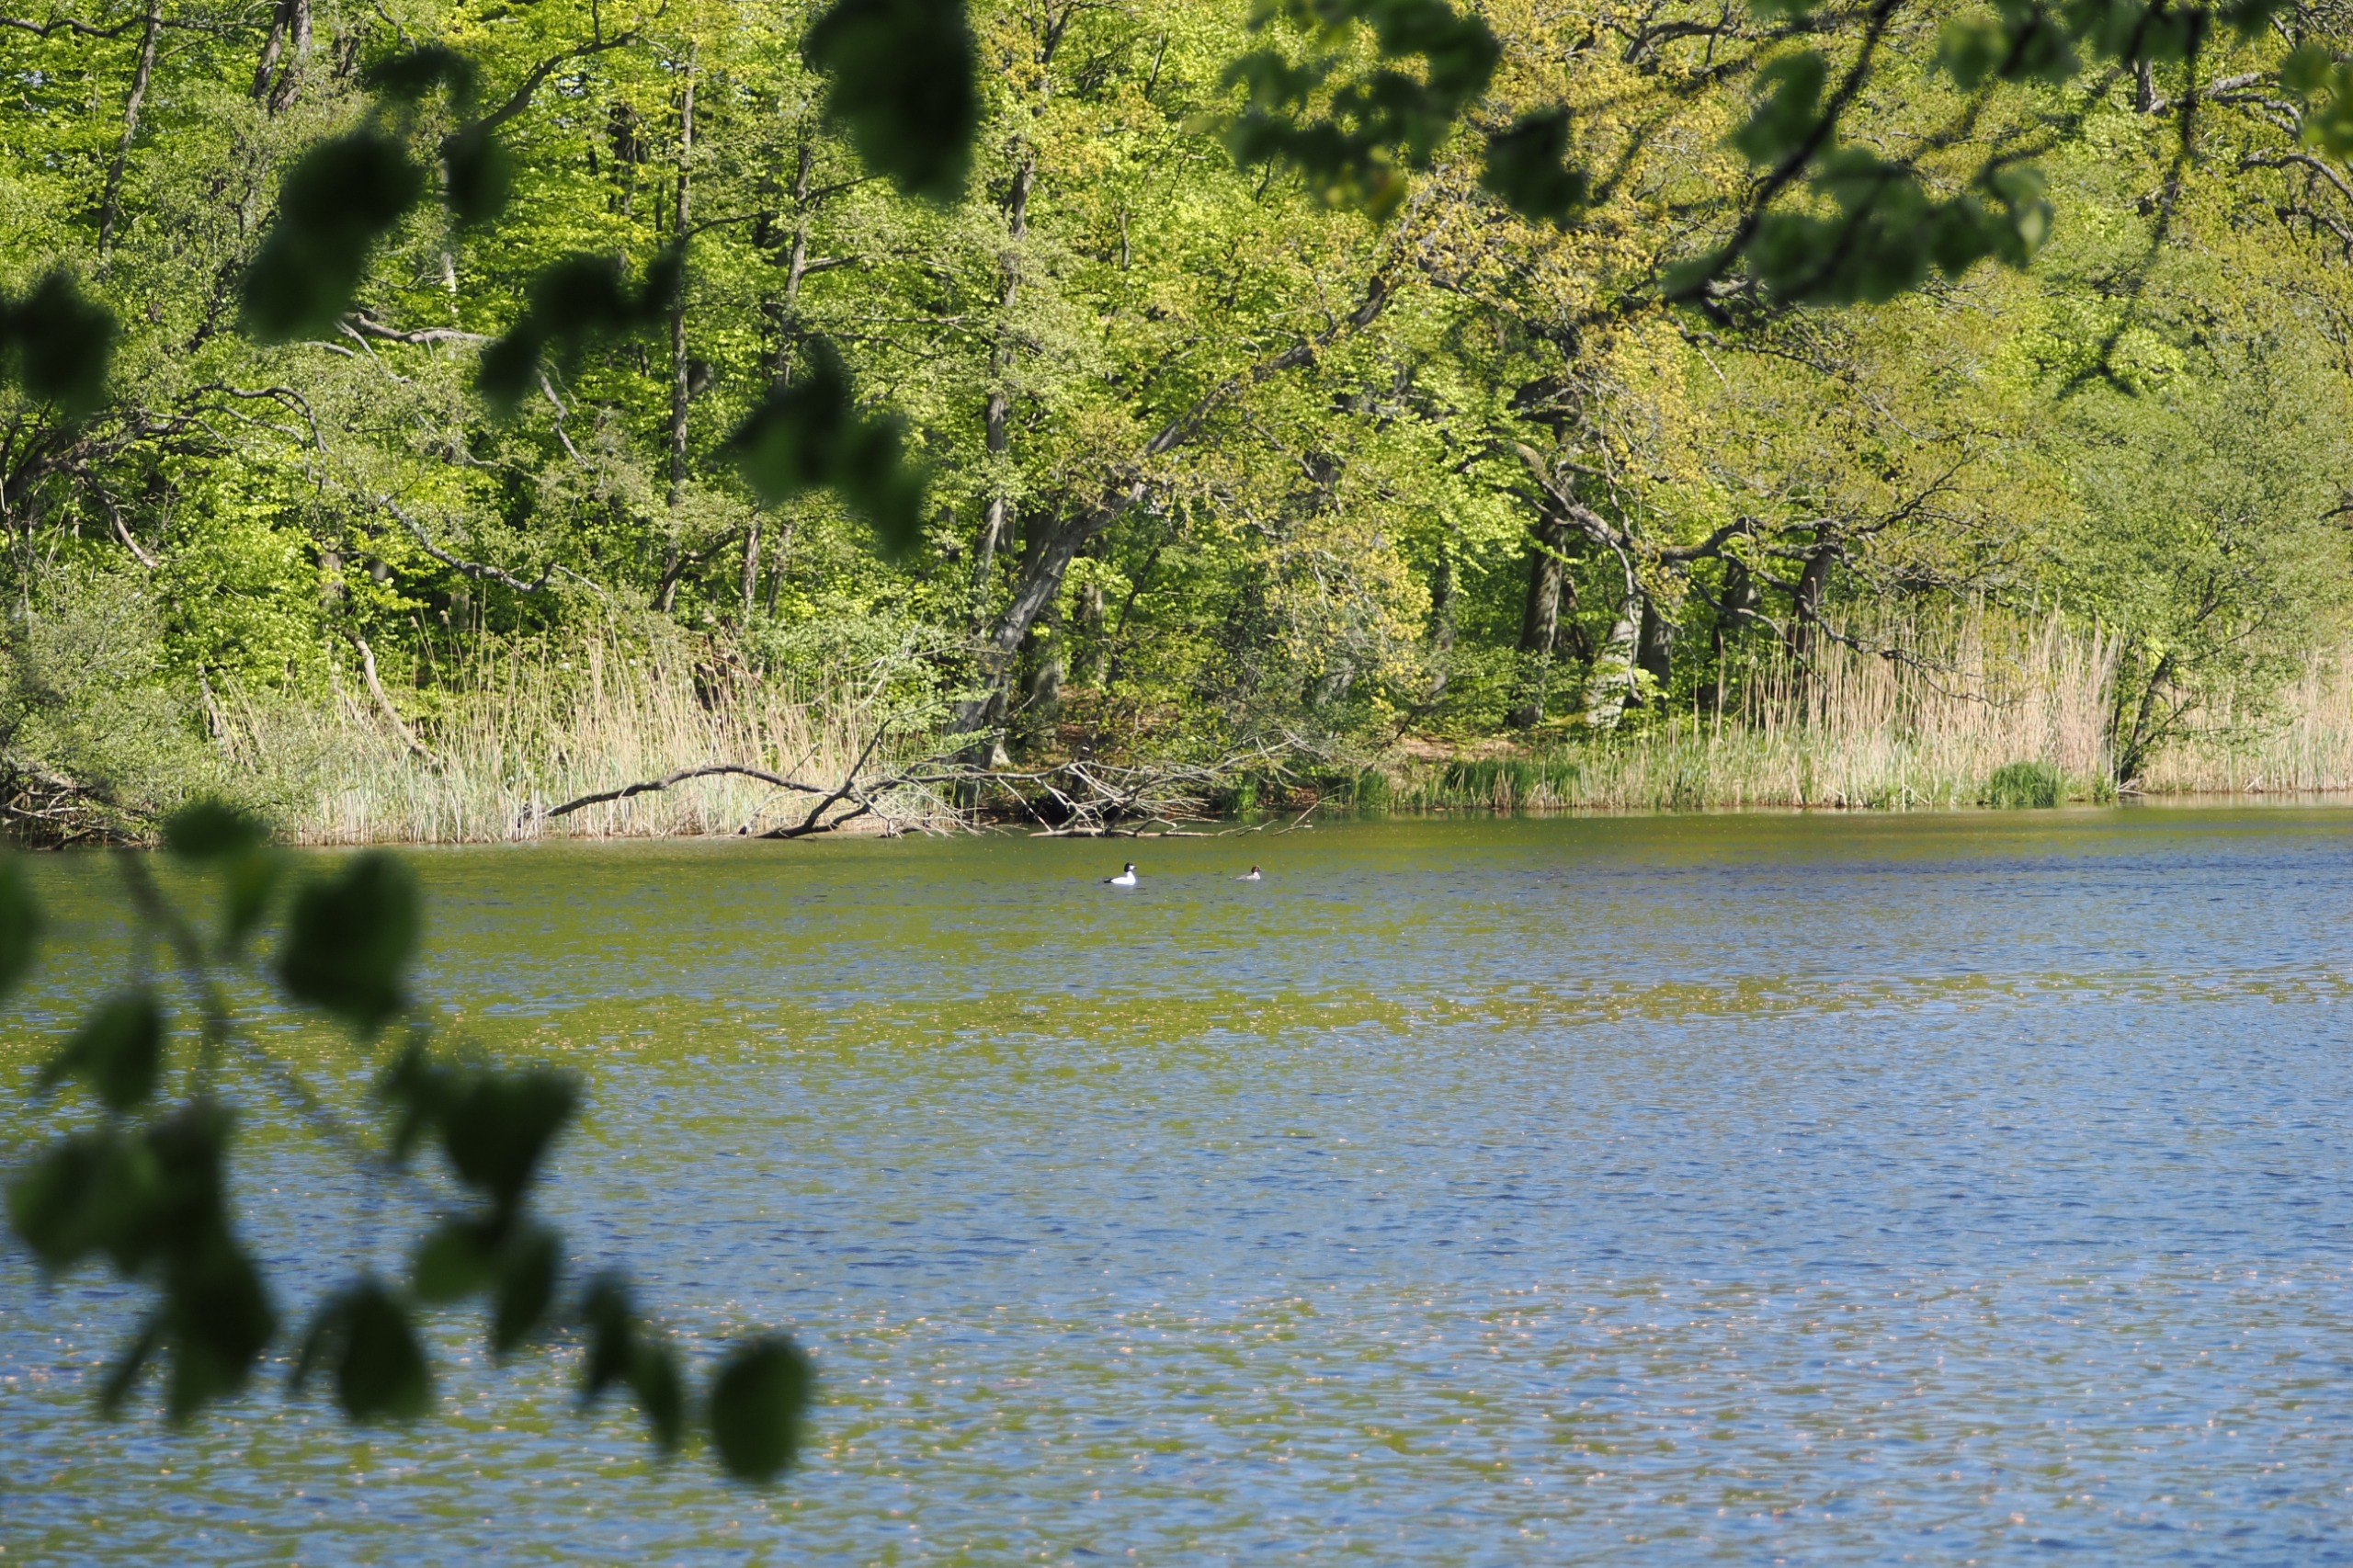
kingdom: Animalia
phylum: Chordata
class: Aves
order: Anseriformes
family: Anatidae
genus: Bucephala
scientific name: Bucephala clangula
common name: Hvinand
